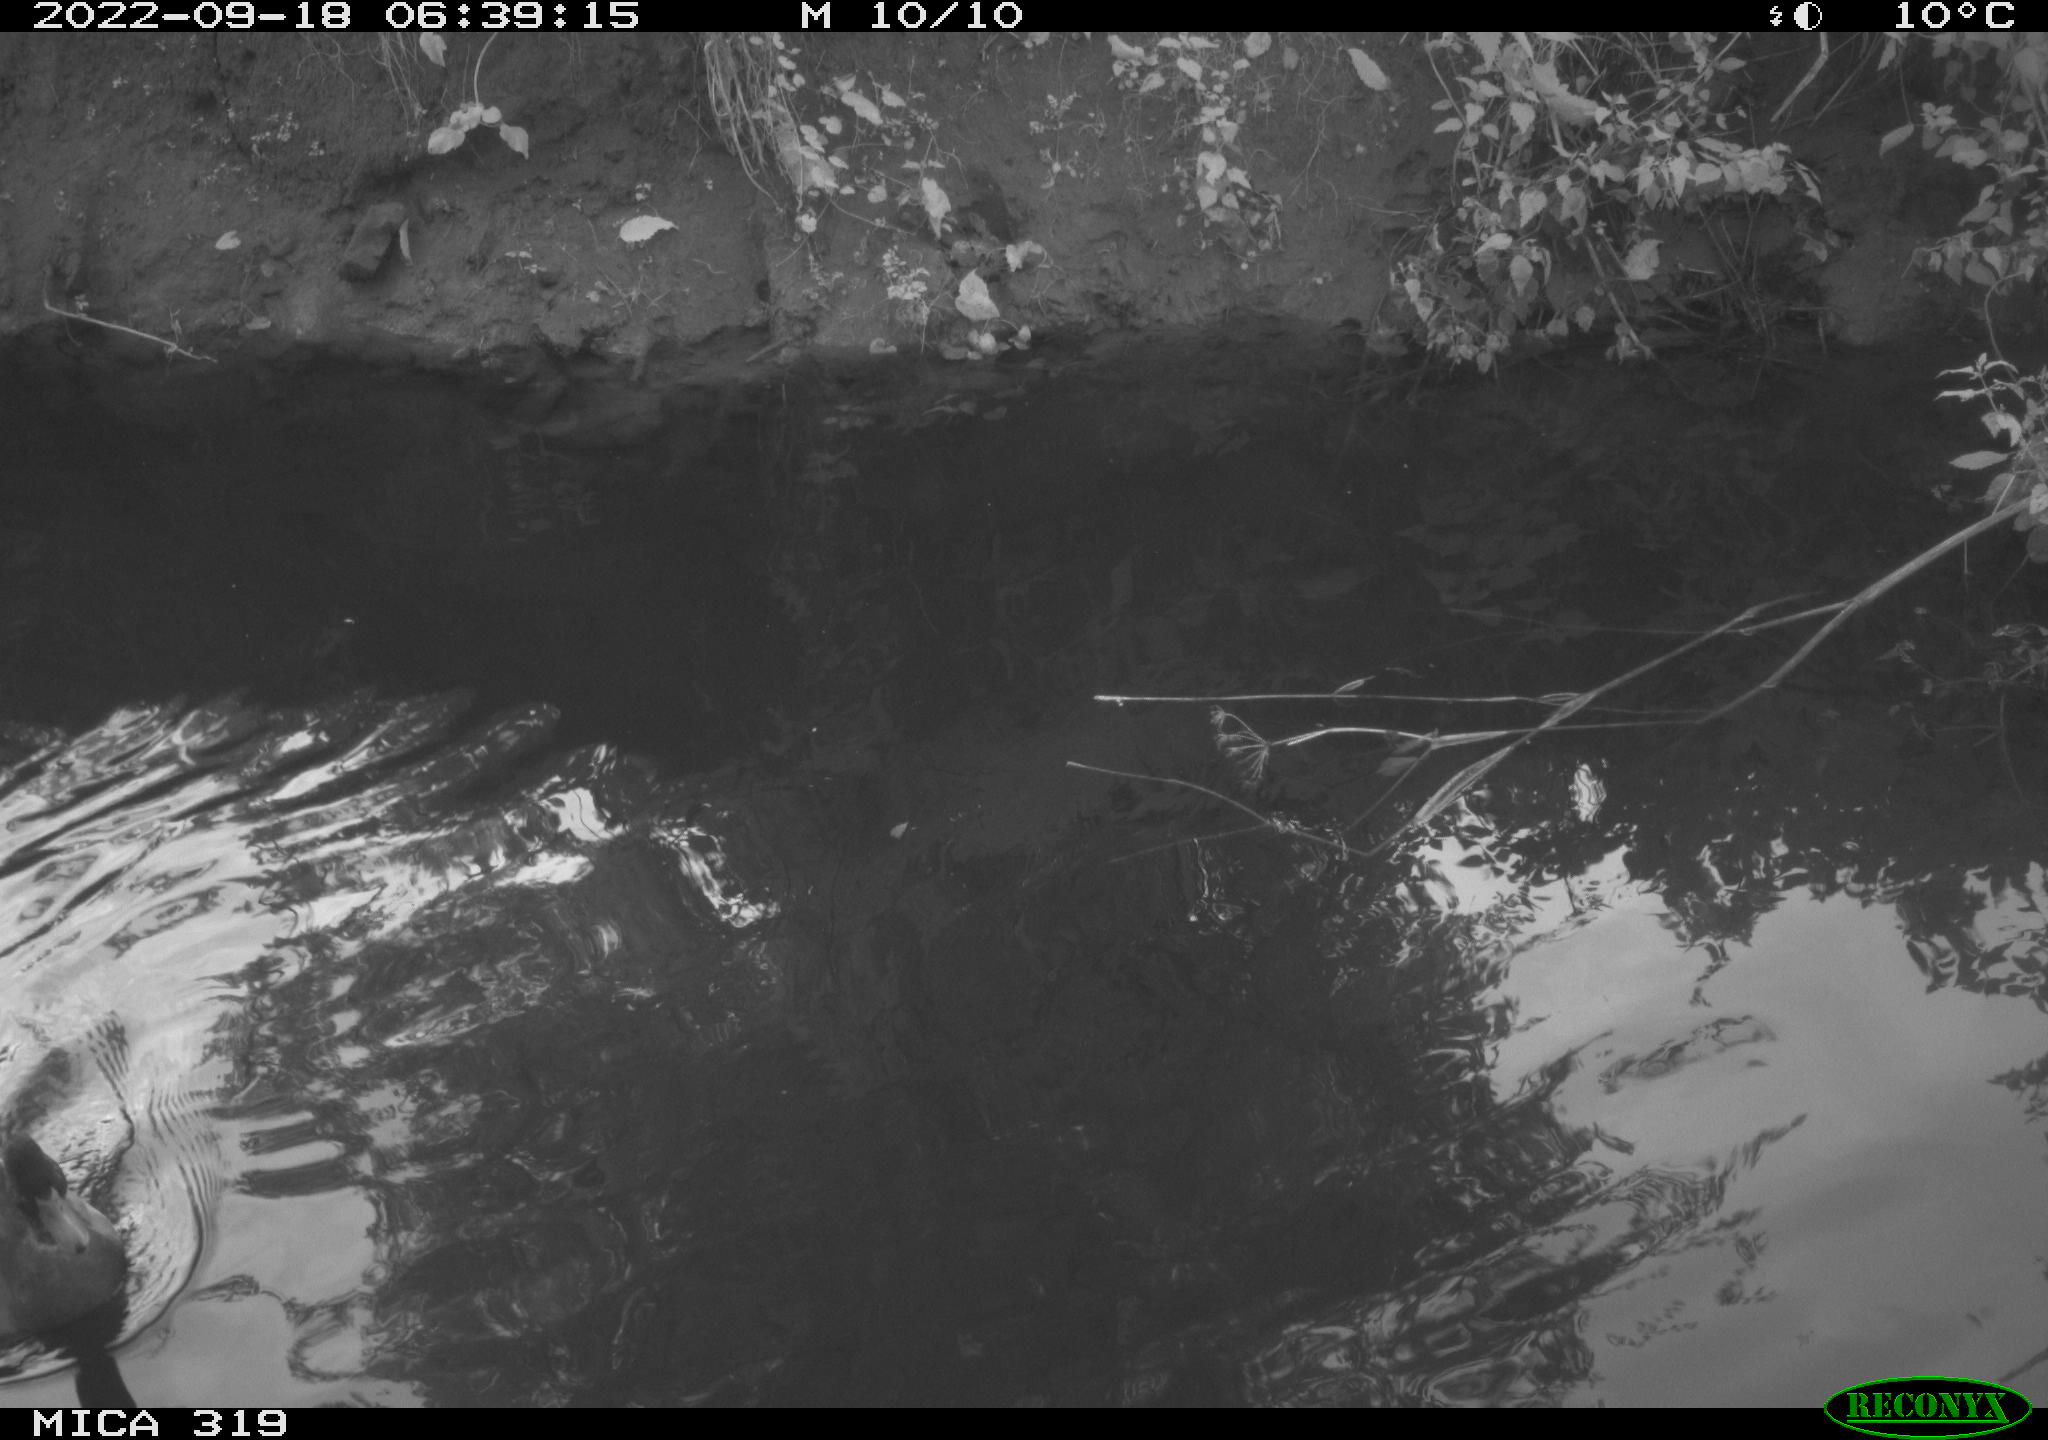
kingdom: Animalia
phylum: Chordata
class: Aves
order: Anseriformes
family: Anatidae
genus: Anas
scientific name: Anas
